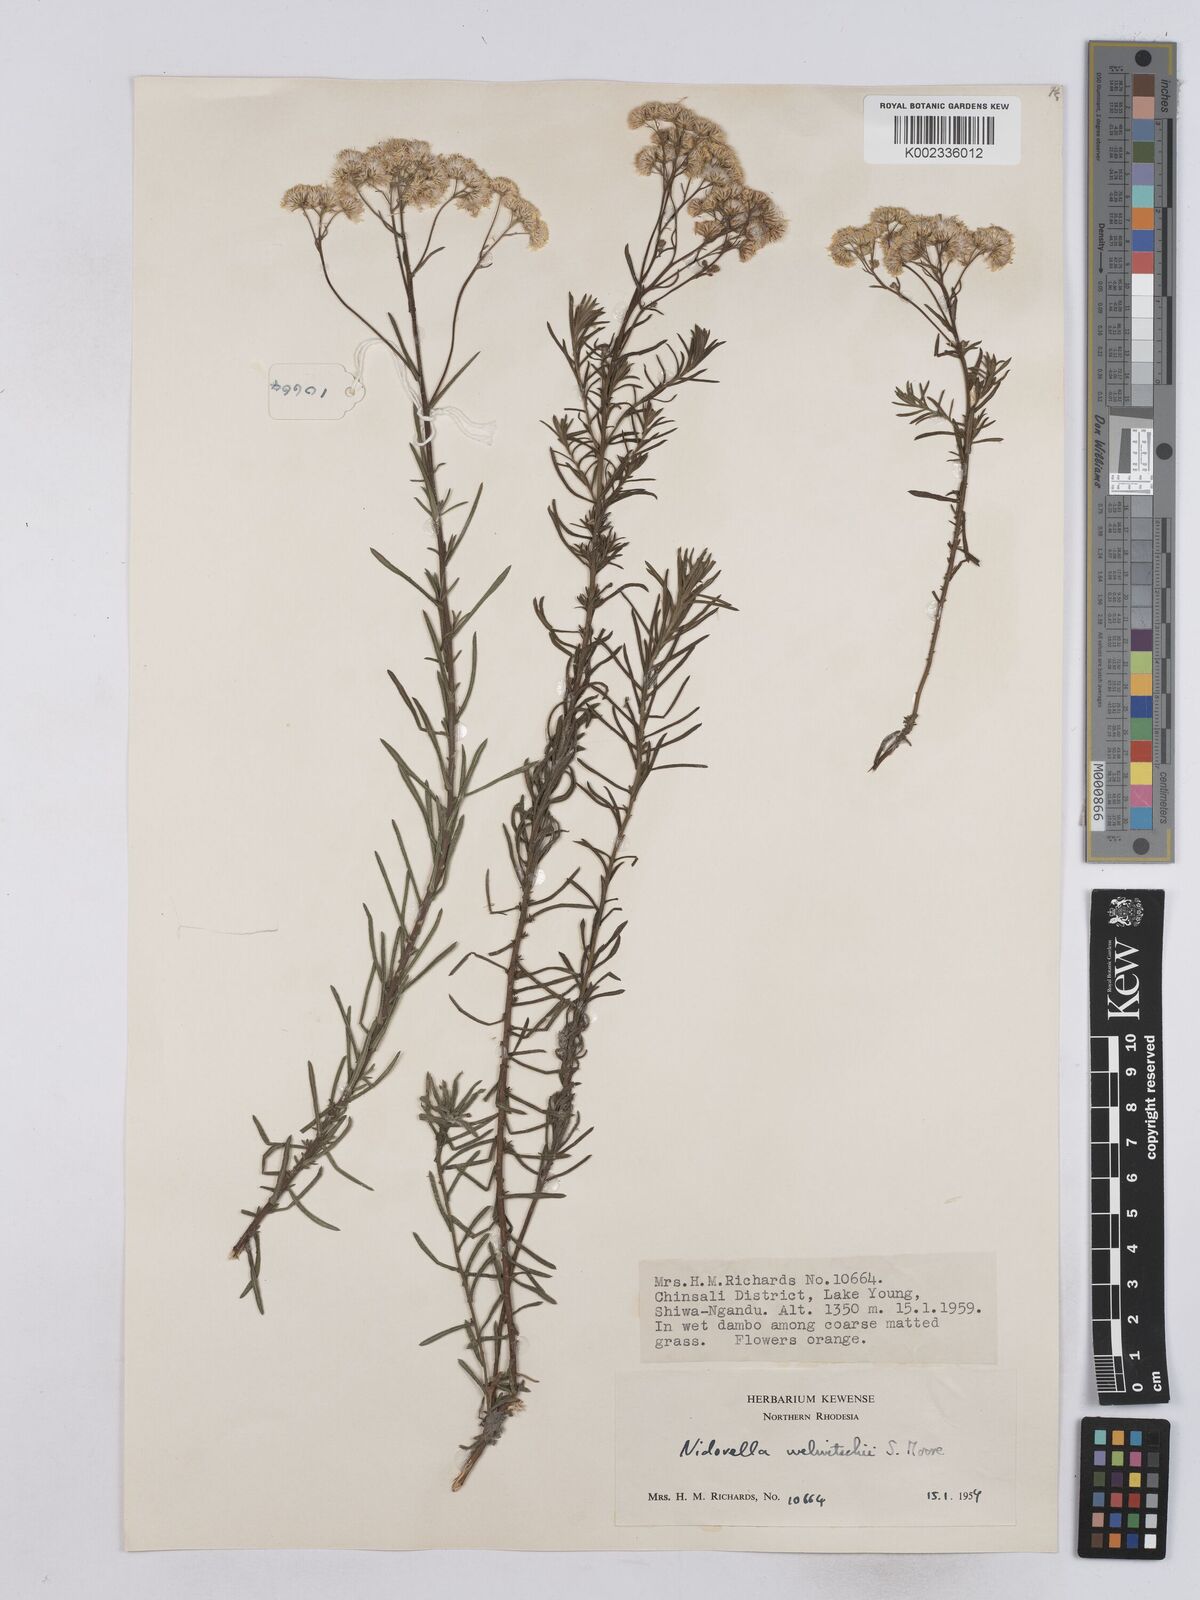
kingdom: Plantae
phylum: Tracheophyta
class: Magnoliopsida
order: Asterales
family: Asteraceae
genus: Nidorella
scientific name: Nidorella welwitschii
